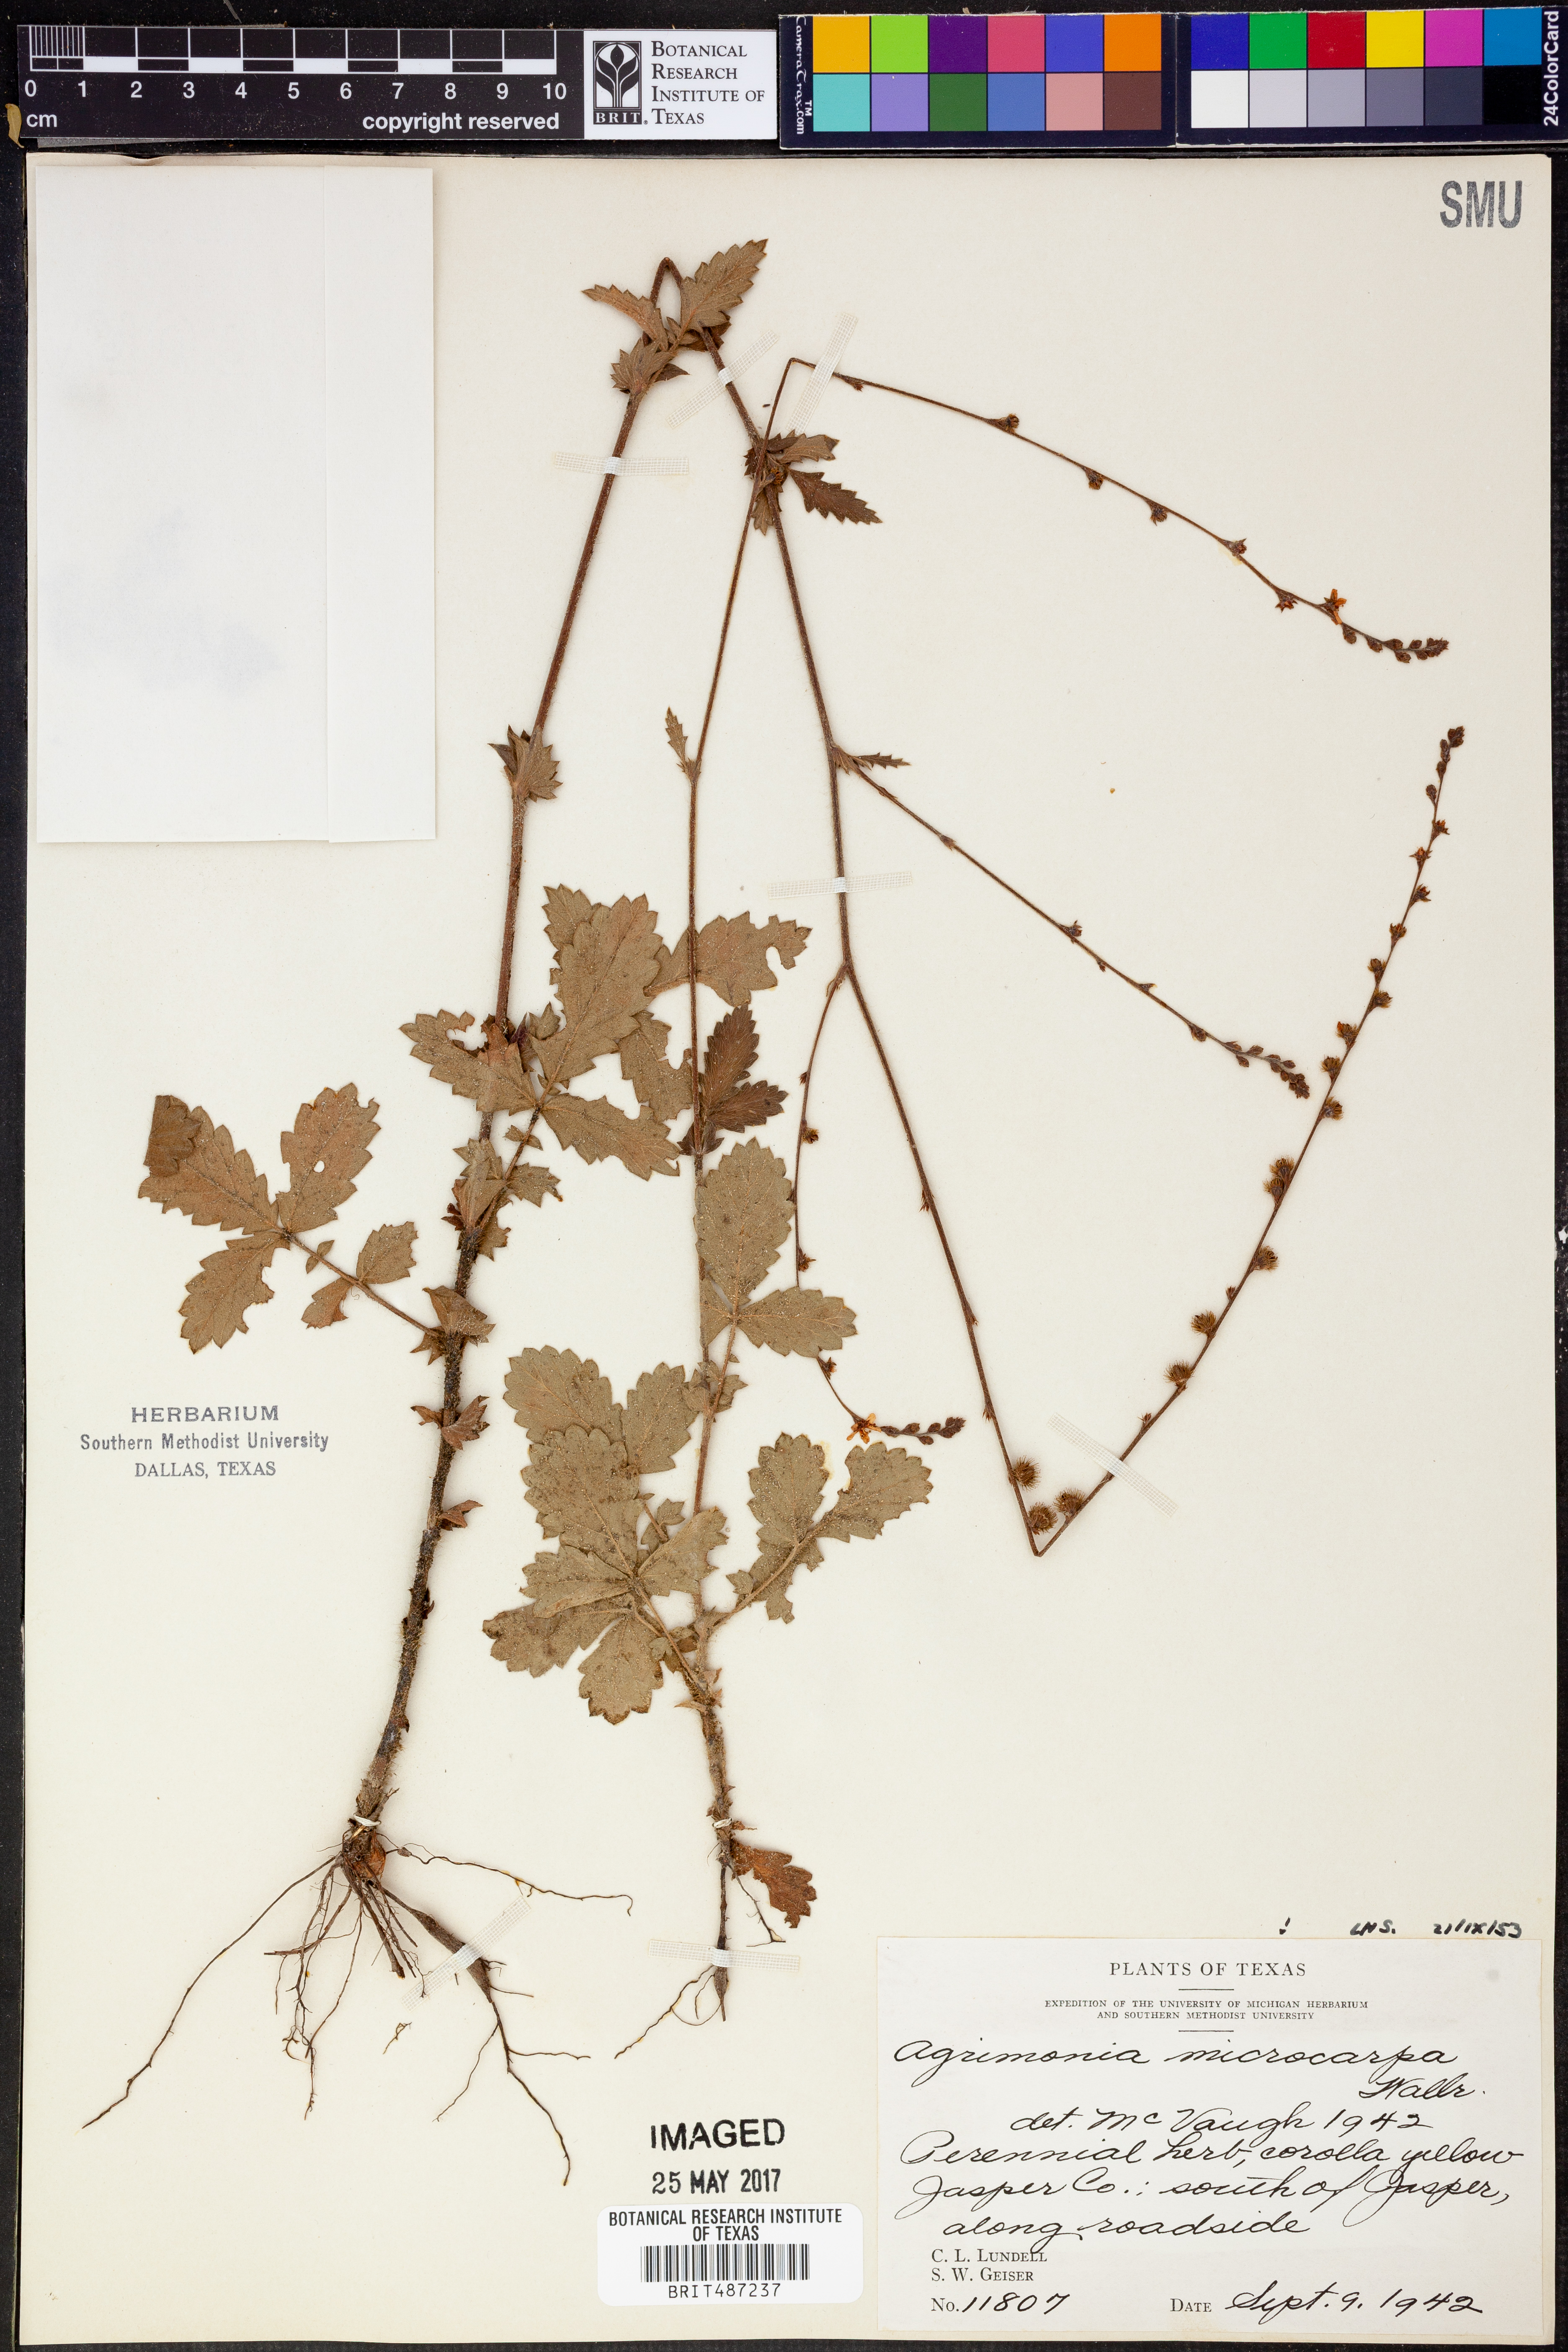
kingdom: Plantae
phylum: Tracheophyta
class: Magnoliopsida
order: Rosales
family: Rosaceae
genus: Agrimonia
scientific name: Agrimonia microcarpa
